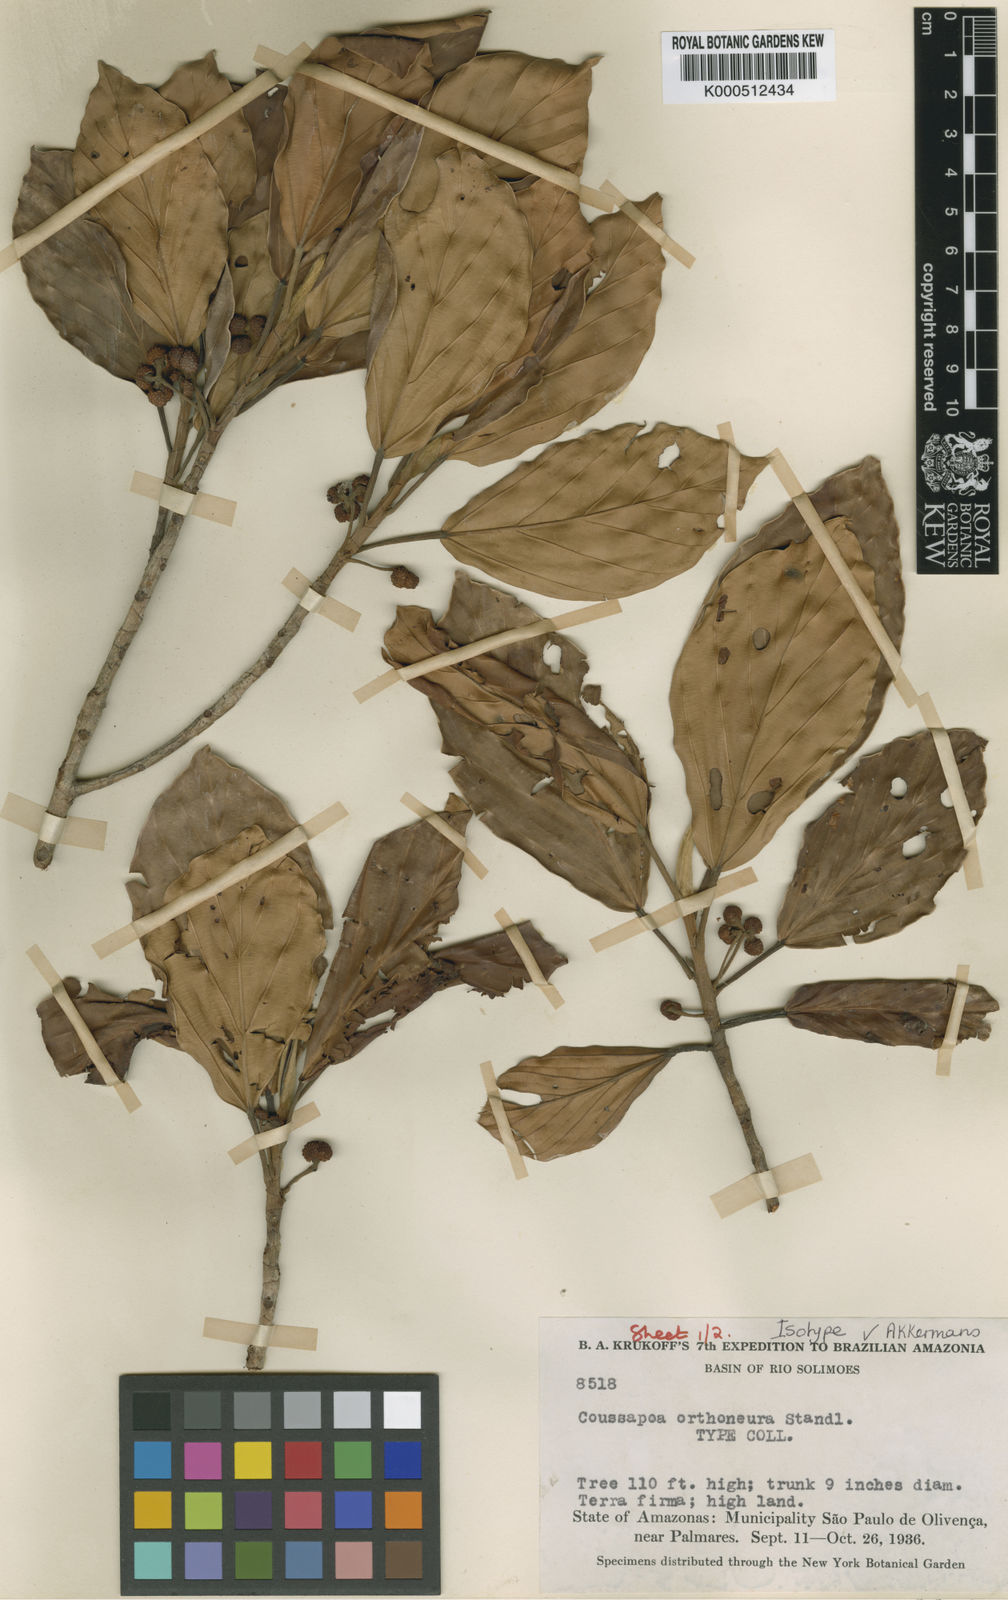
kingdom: Plantae
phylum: Tracheophyta
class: Magnoliopsida
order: Rosales
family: Urticaceae
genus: Coussapoa
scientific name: Coussapoa orthoneura
